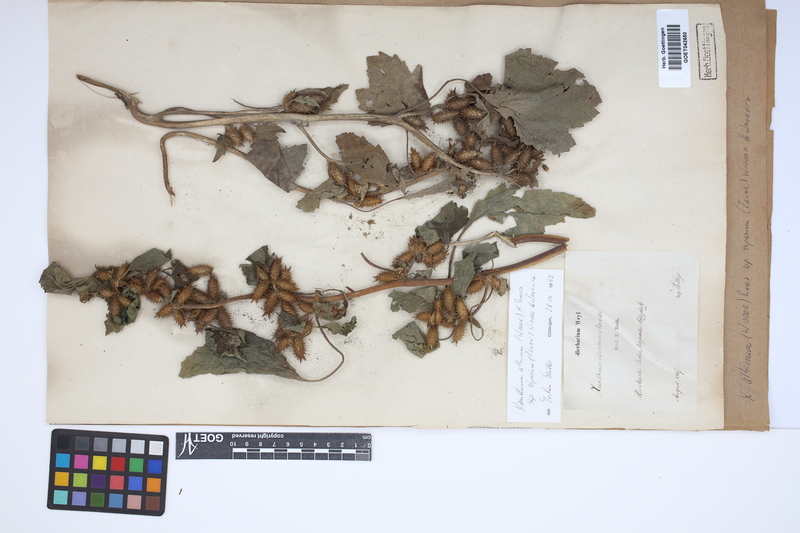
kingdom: Plantae
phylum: Tracheophyta
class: Magnoliopsida
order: Asterales
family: Asteraceae
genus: Xanthium
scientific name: Xanthium orientale
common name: Californian burr
